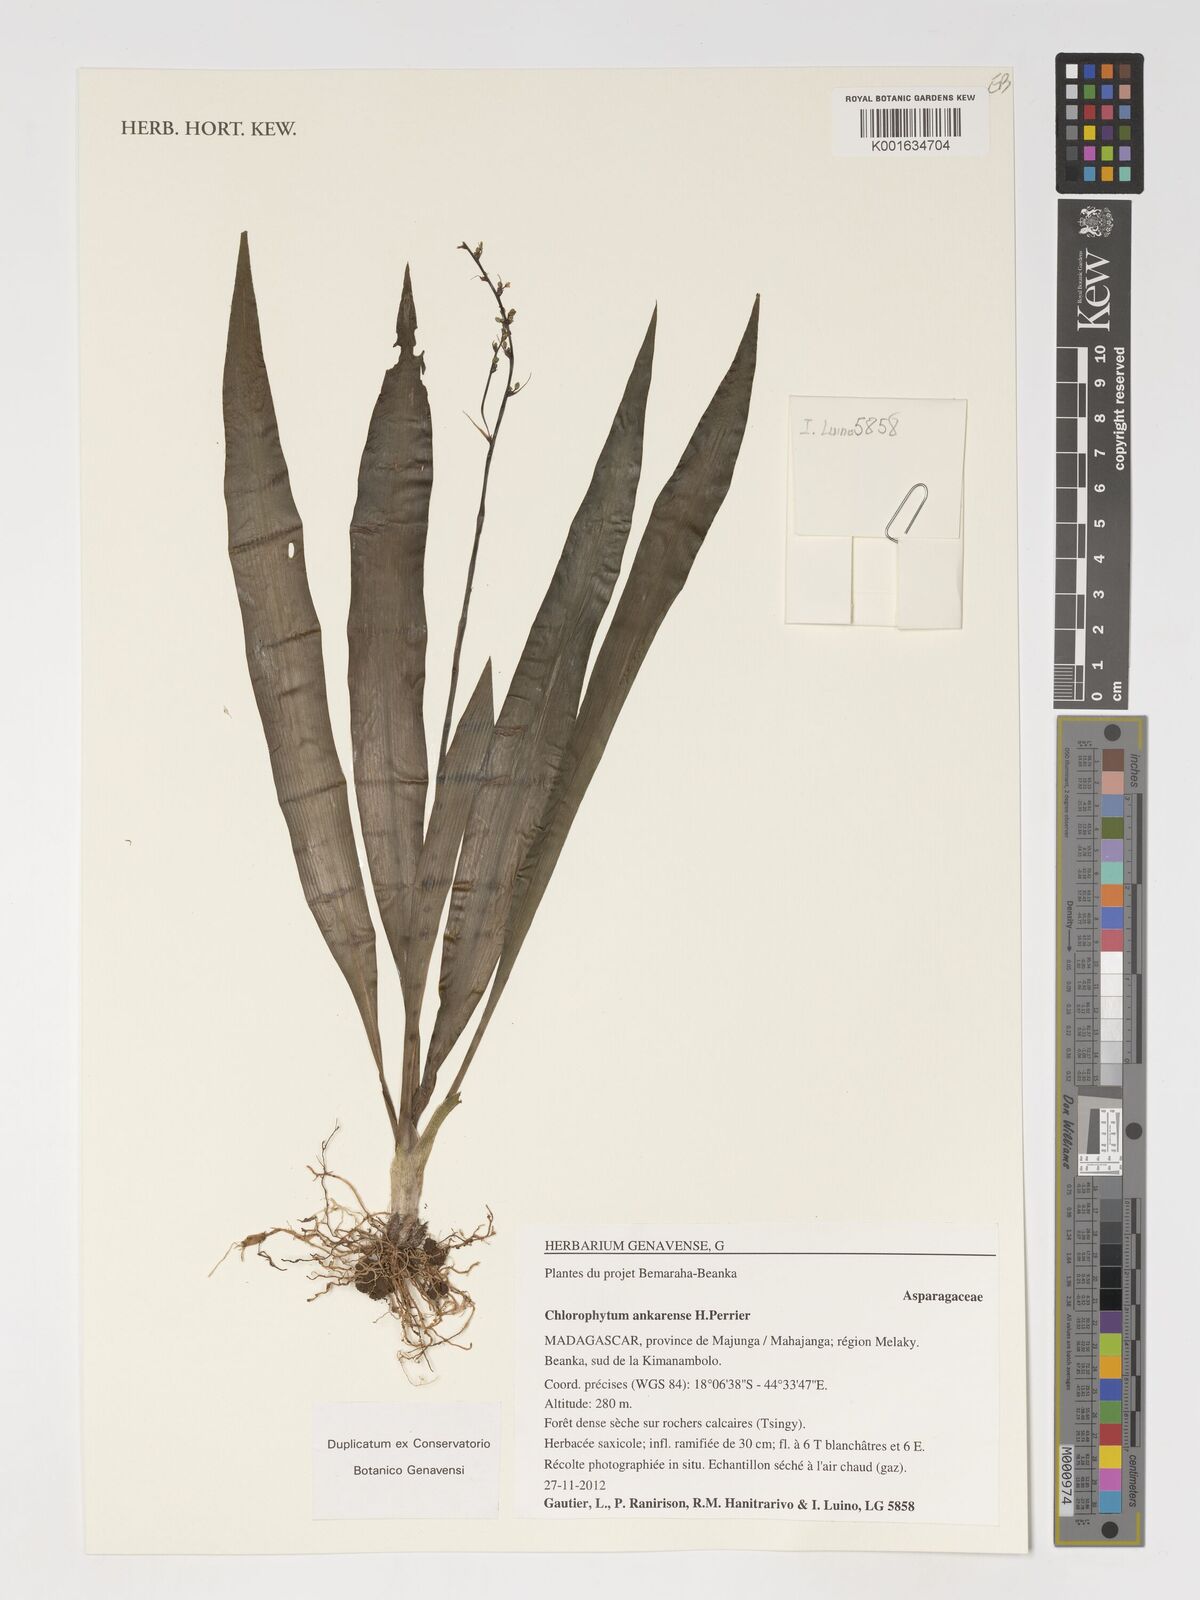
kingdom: Plantae
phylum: Tracheophyta
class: Liliopsida
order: Asparagales
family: Asparagaceae
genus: Chlorophytum
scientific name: Chlorophytum ankarense
